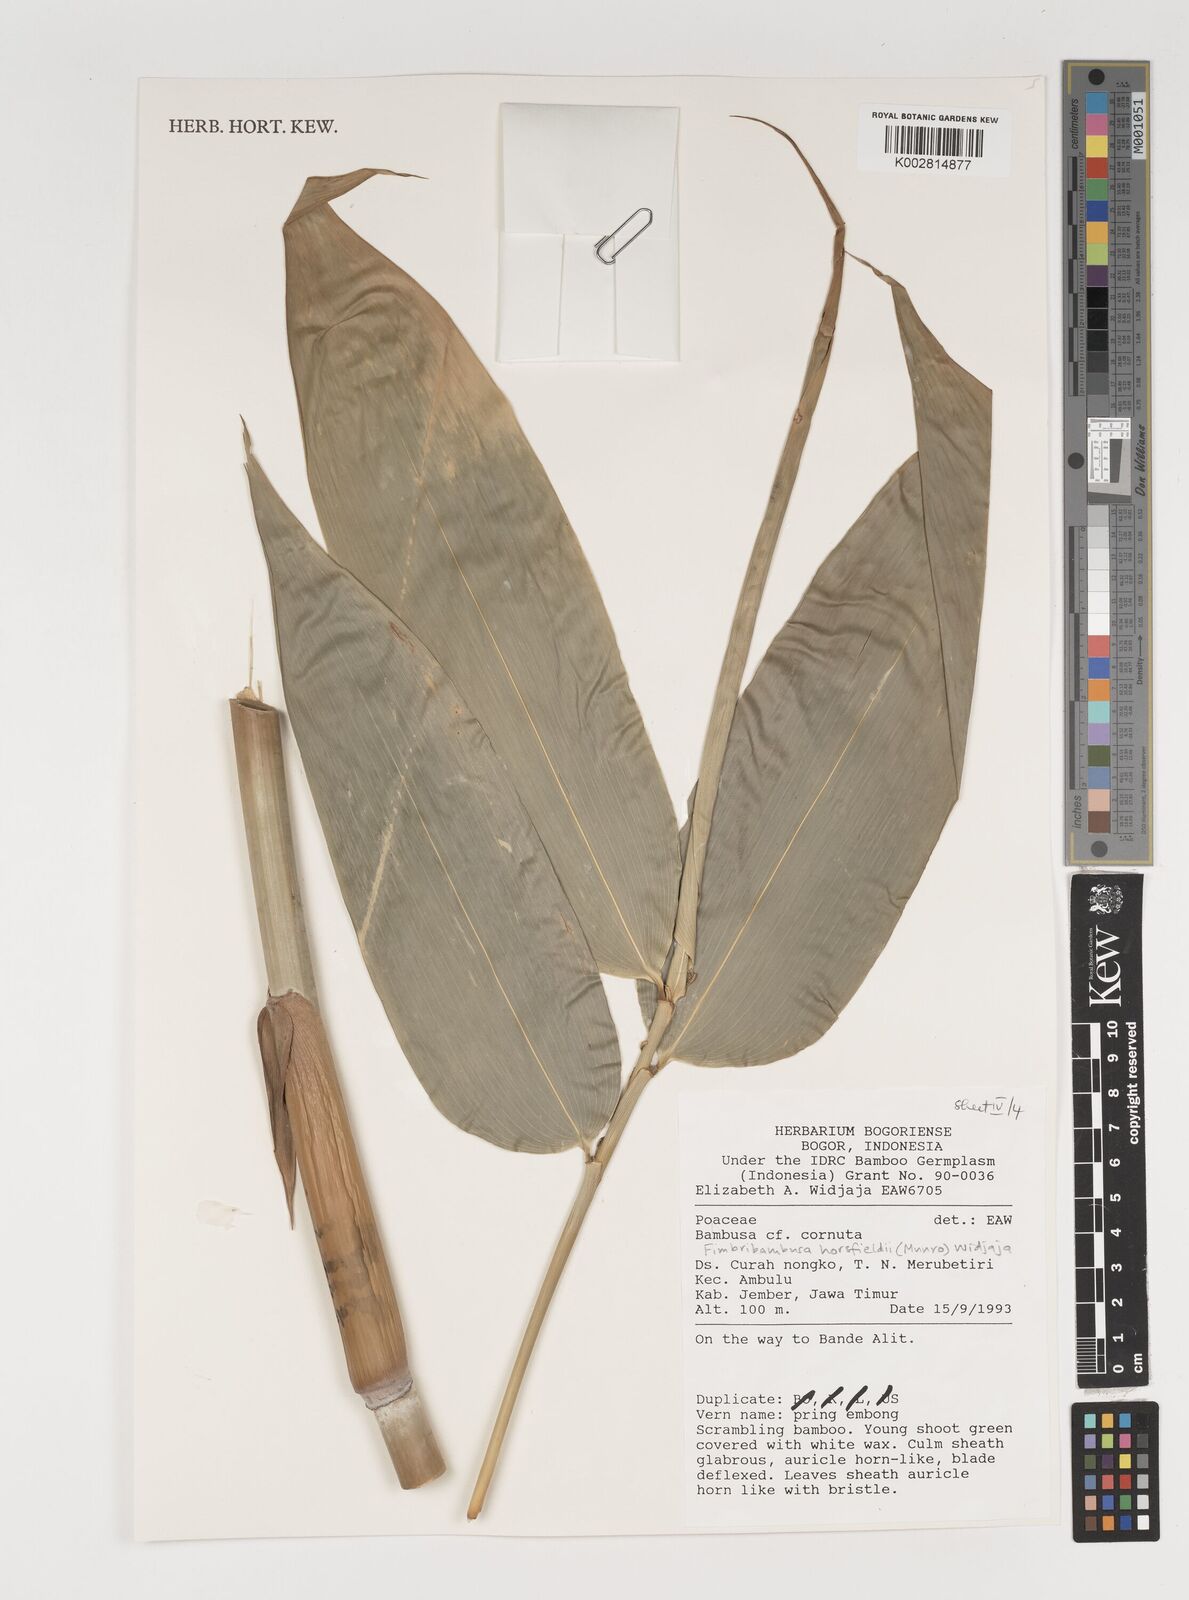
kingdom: Plantae
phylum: Tracheophyta
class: Liliopsida
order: Poales
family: Poaceae
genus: Fimbribambusa
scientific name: Fimbribambusa horsfieldii
